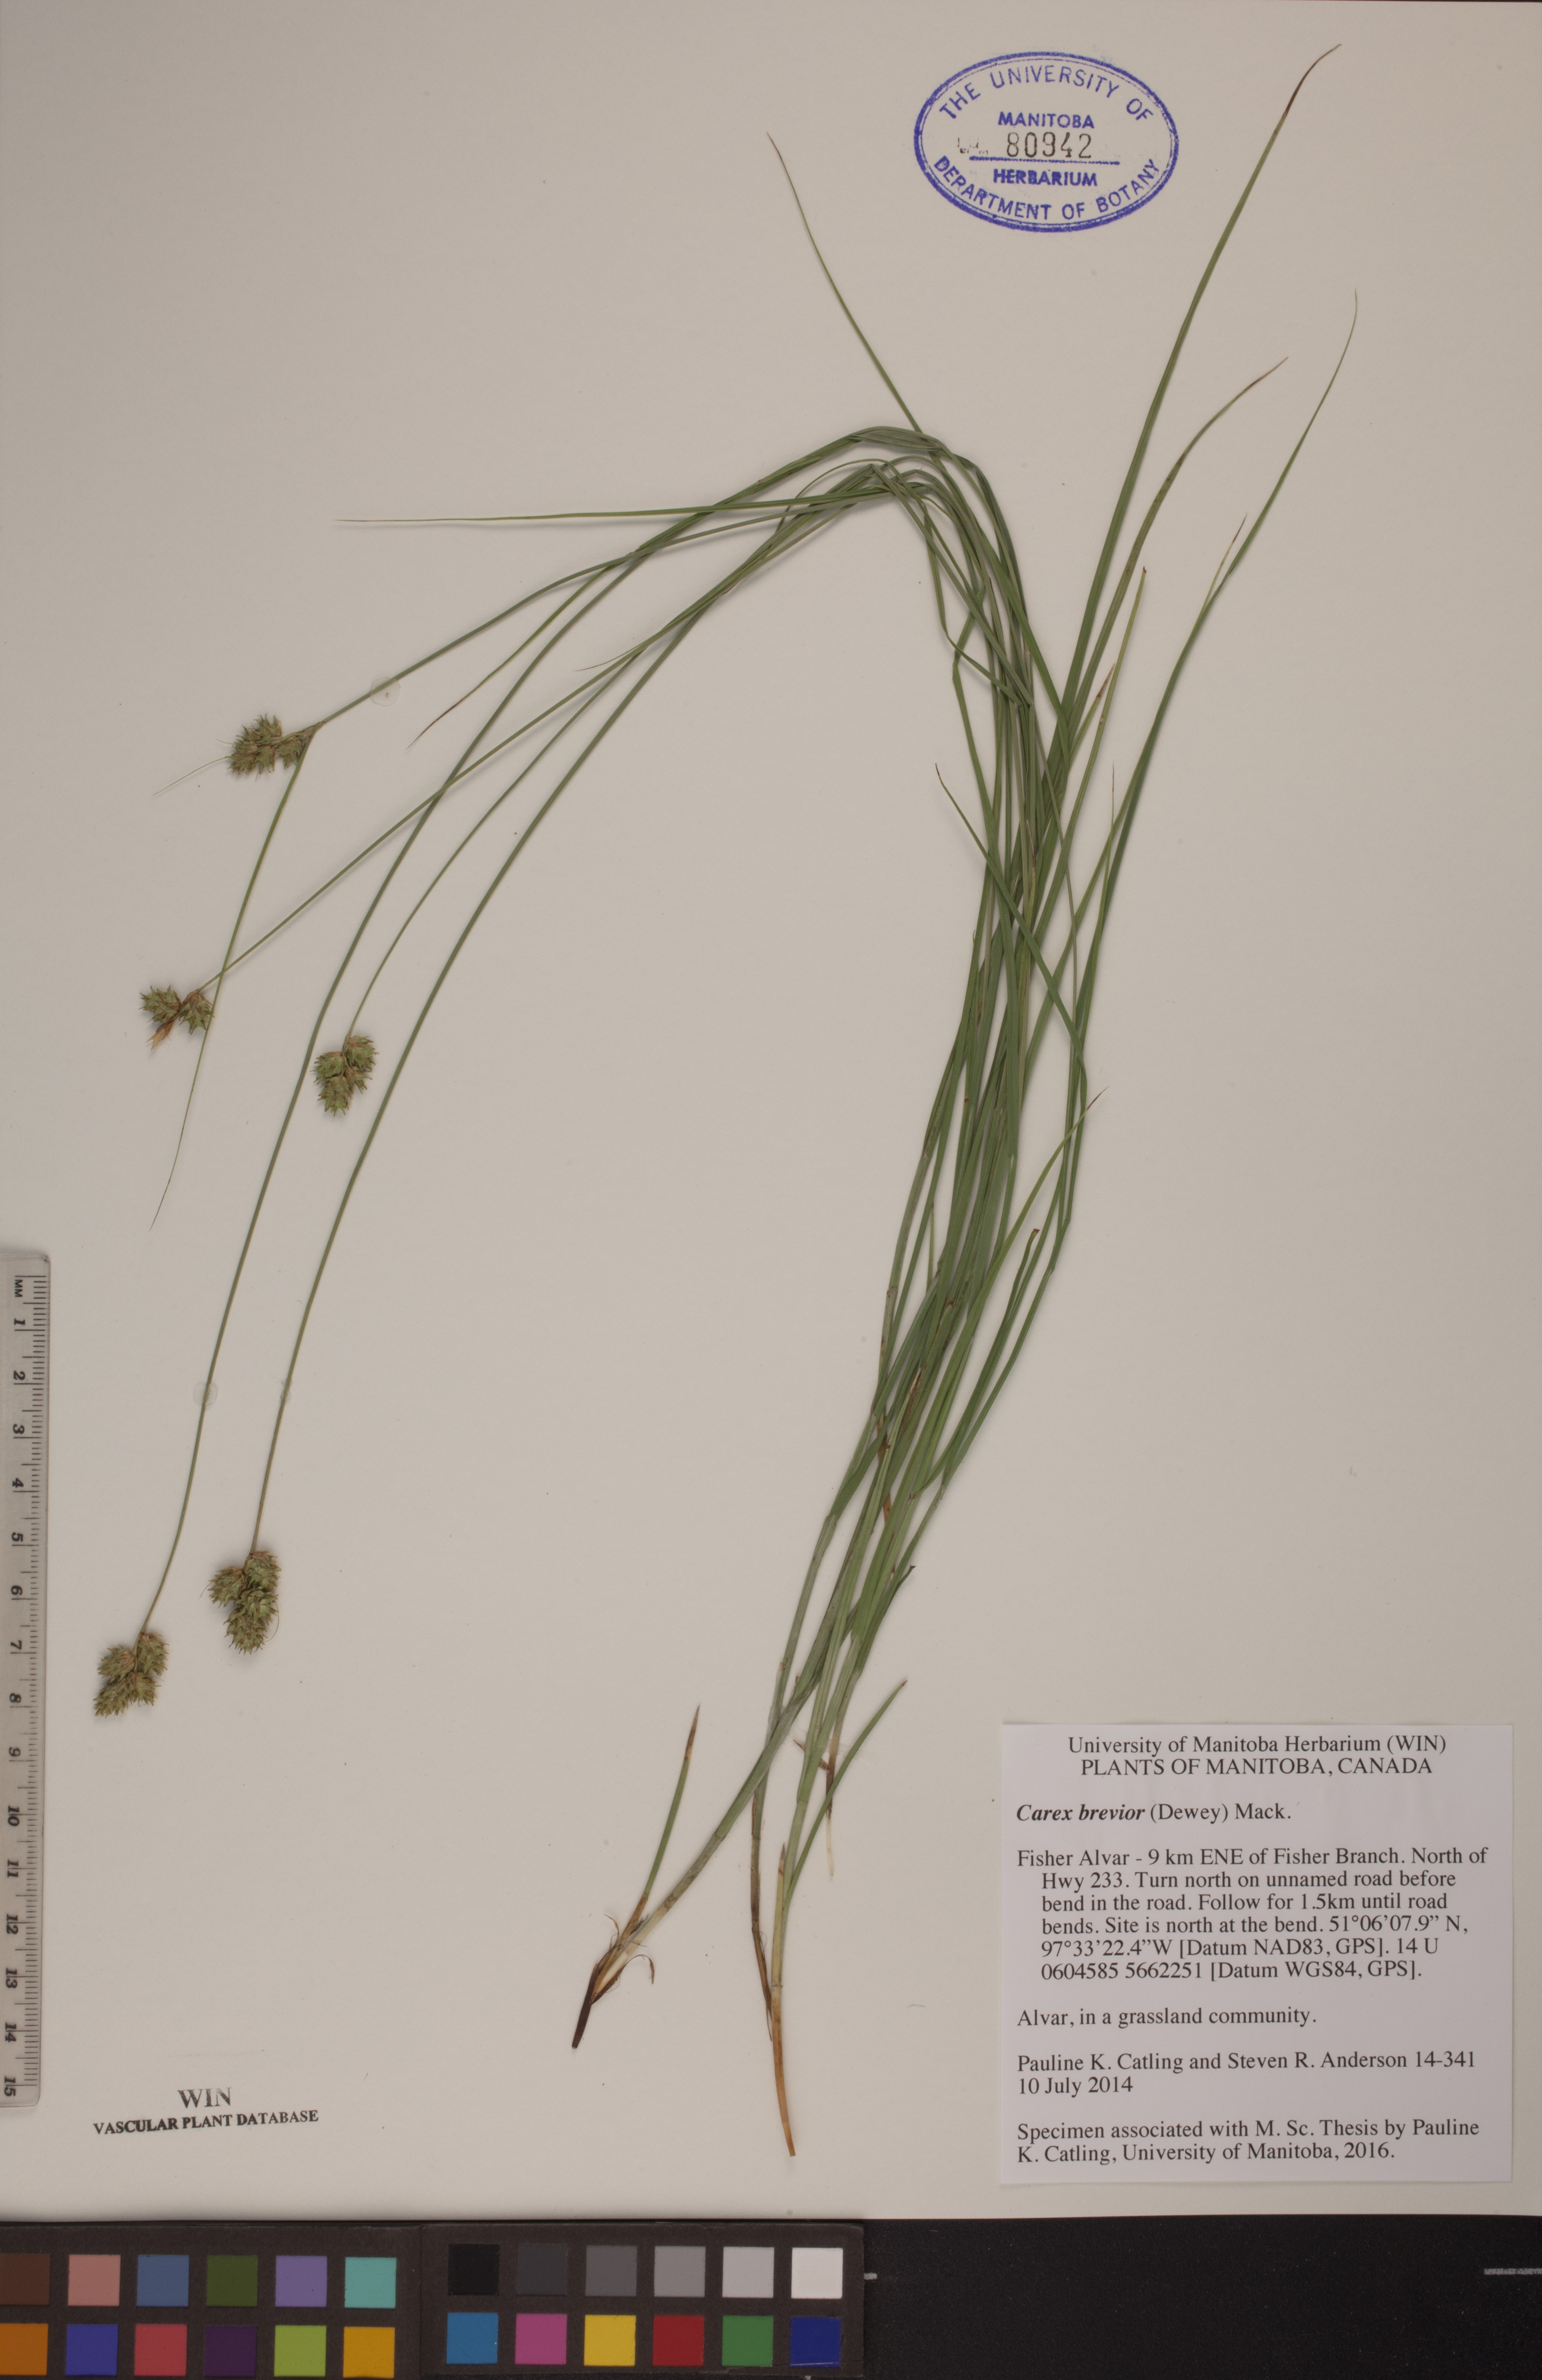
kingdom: Plantae
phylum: Tracheophyta
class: Liliopsida
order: Poales
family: Cyperaceae
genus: Carex
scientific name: Carex brevior
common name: Brevior sedge
